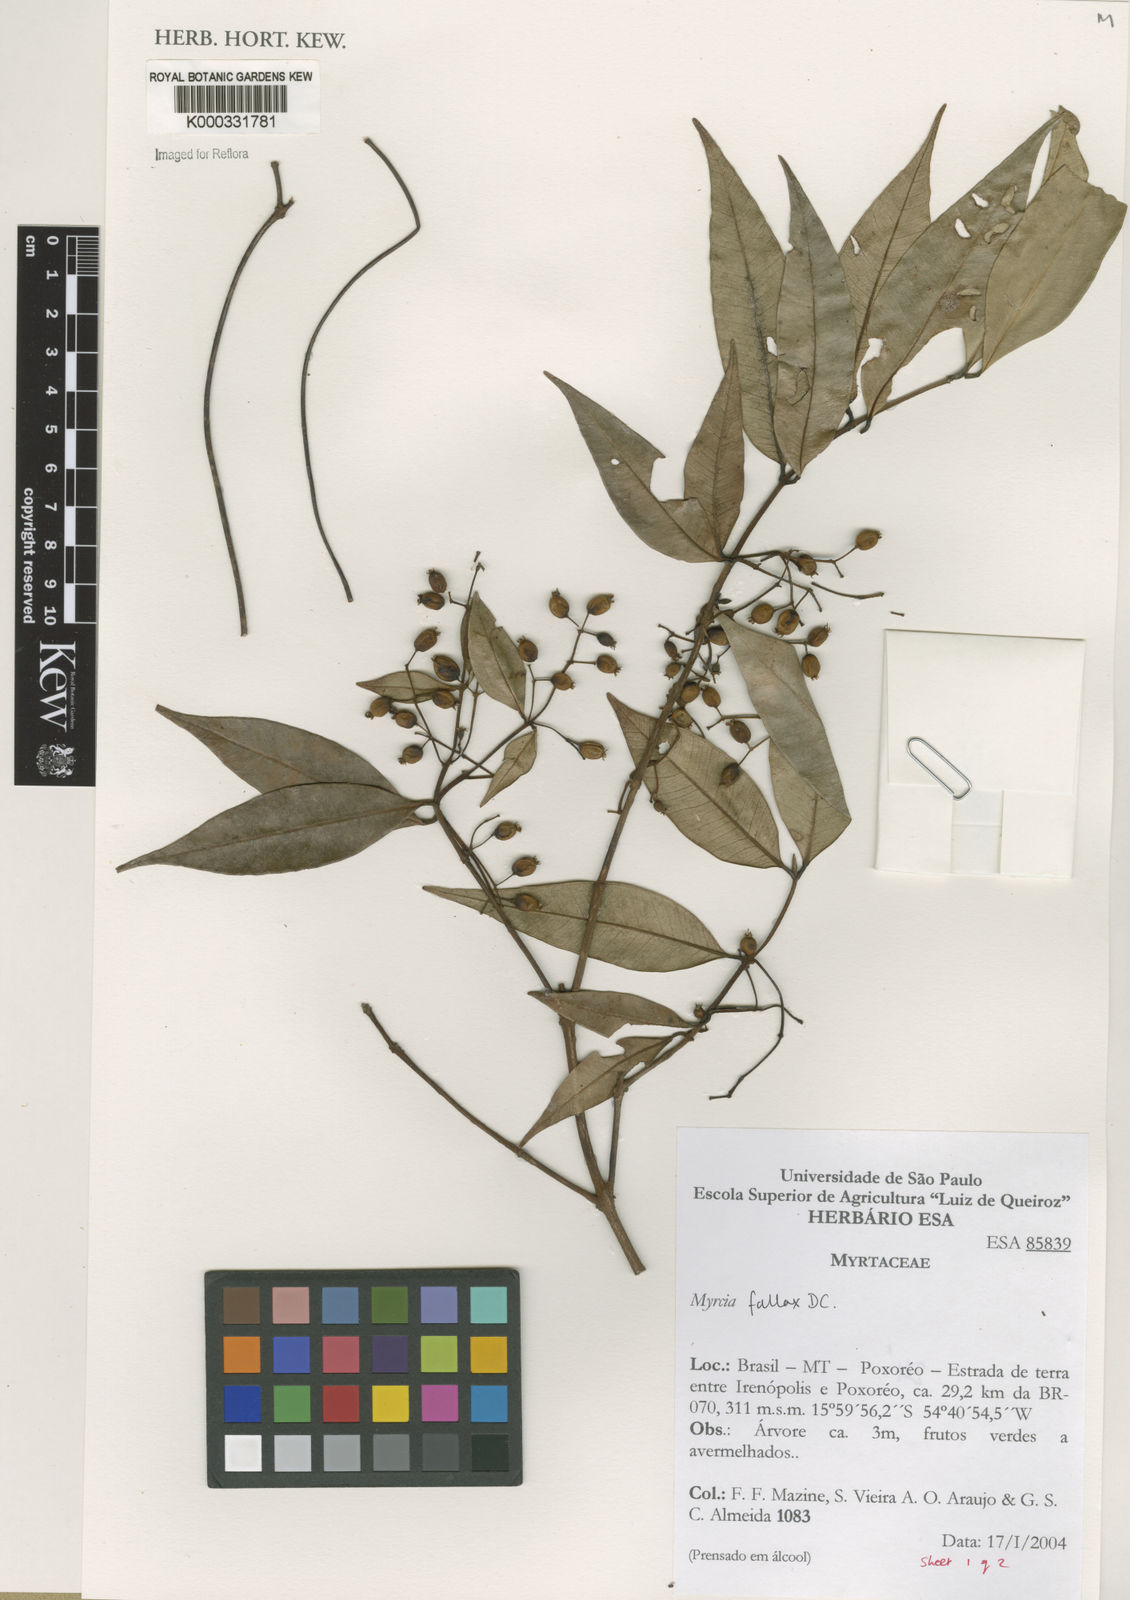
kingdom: Plantae
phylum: Tracheophyta
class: Magnoliopsida
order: Myrtales
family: Myrtaceae
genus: Myrcia
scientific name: Myrcia splendens
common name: Surinam cherry
